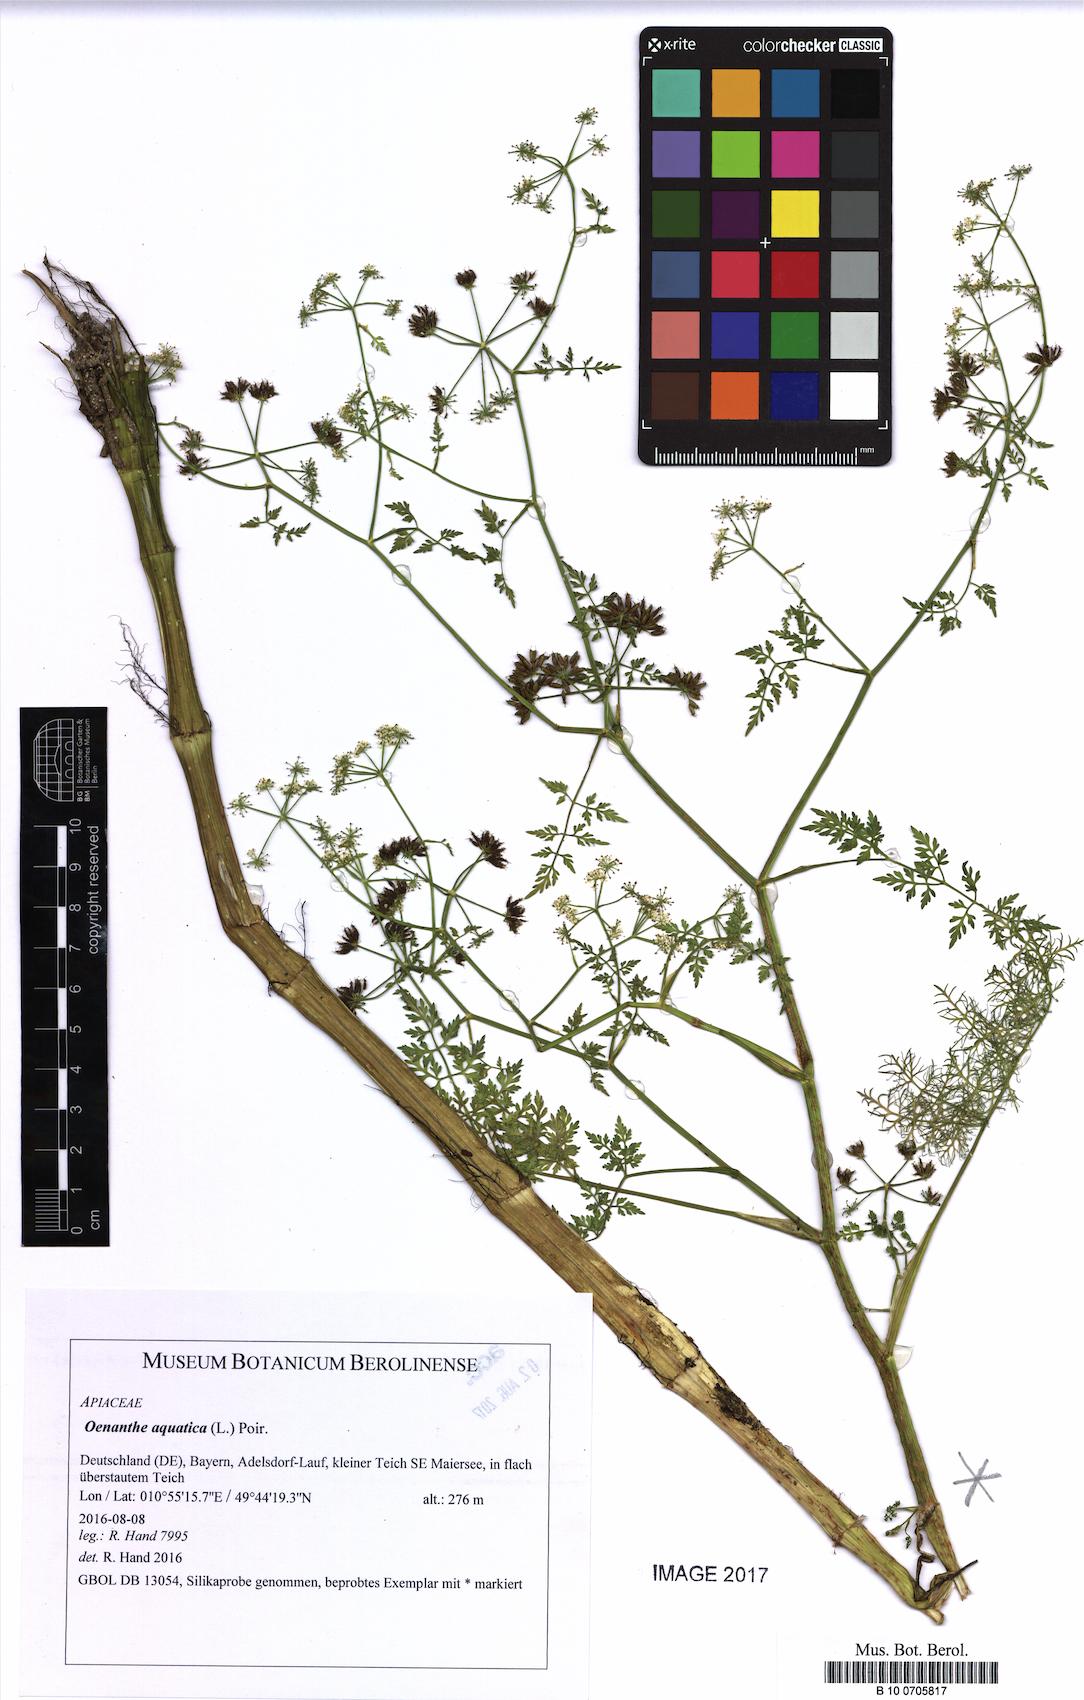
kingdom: Plantae
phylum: Tracheophyta
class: Magnoliopsida
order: Apiales
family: Apiaceae
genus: Oenanthe
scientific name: Oenanthe aquatica
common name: Fine-leaved water-dropwort
